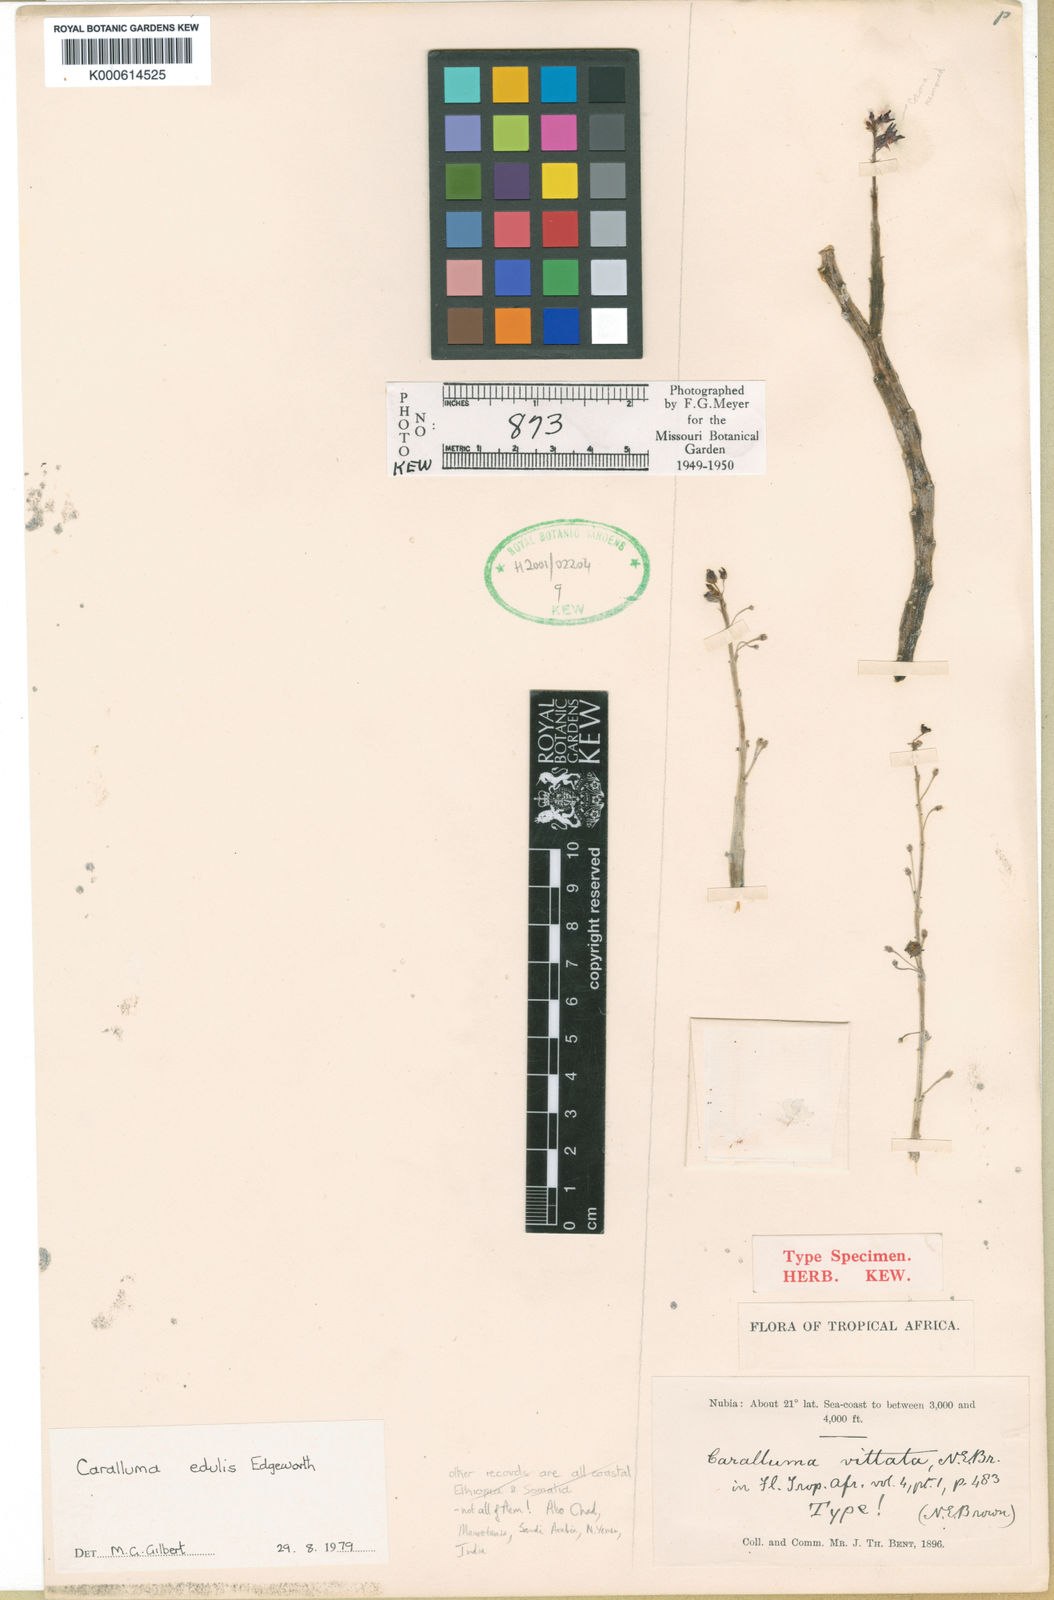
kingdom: Plantae
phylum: Tracheophyta
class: Magnoliopsida
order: Gentianales
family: Apocynaceae
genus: Ceropegia
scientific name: Ceropegia edulis
